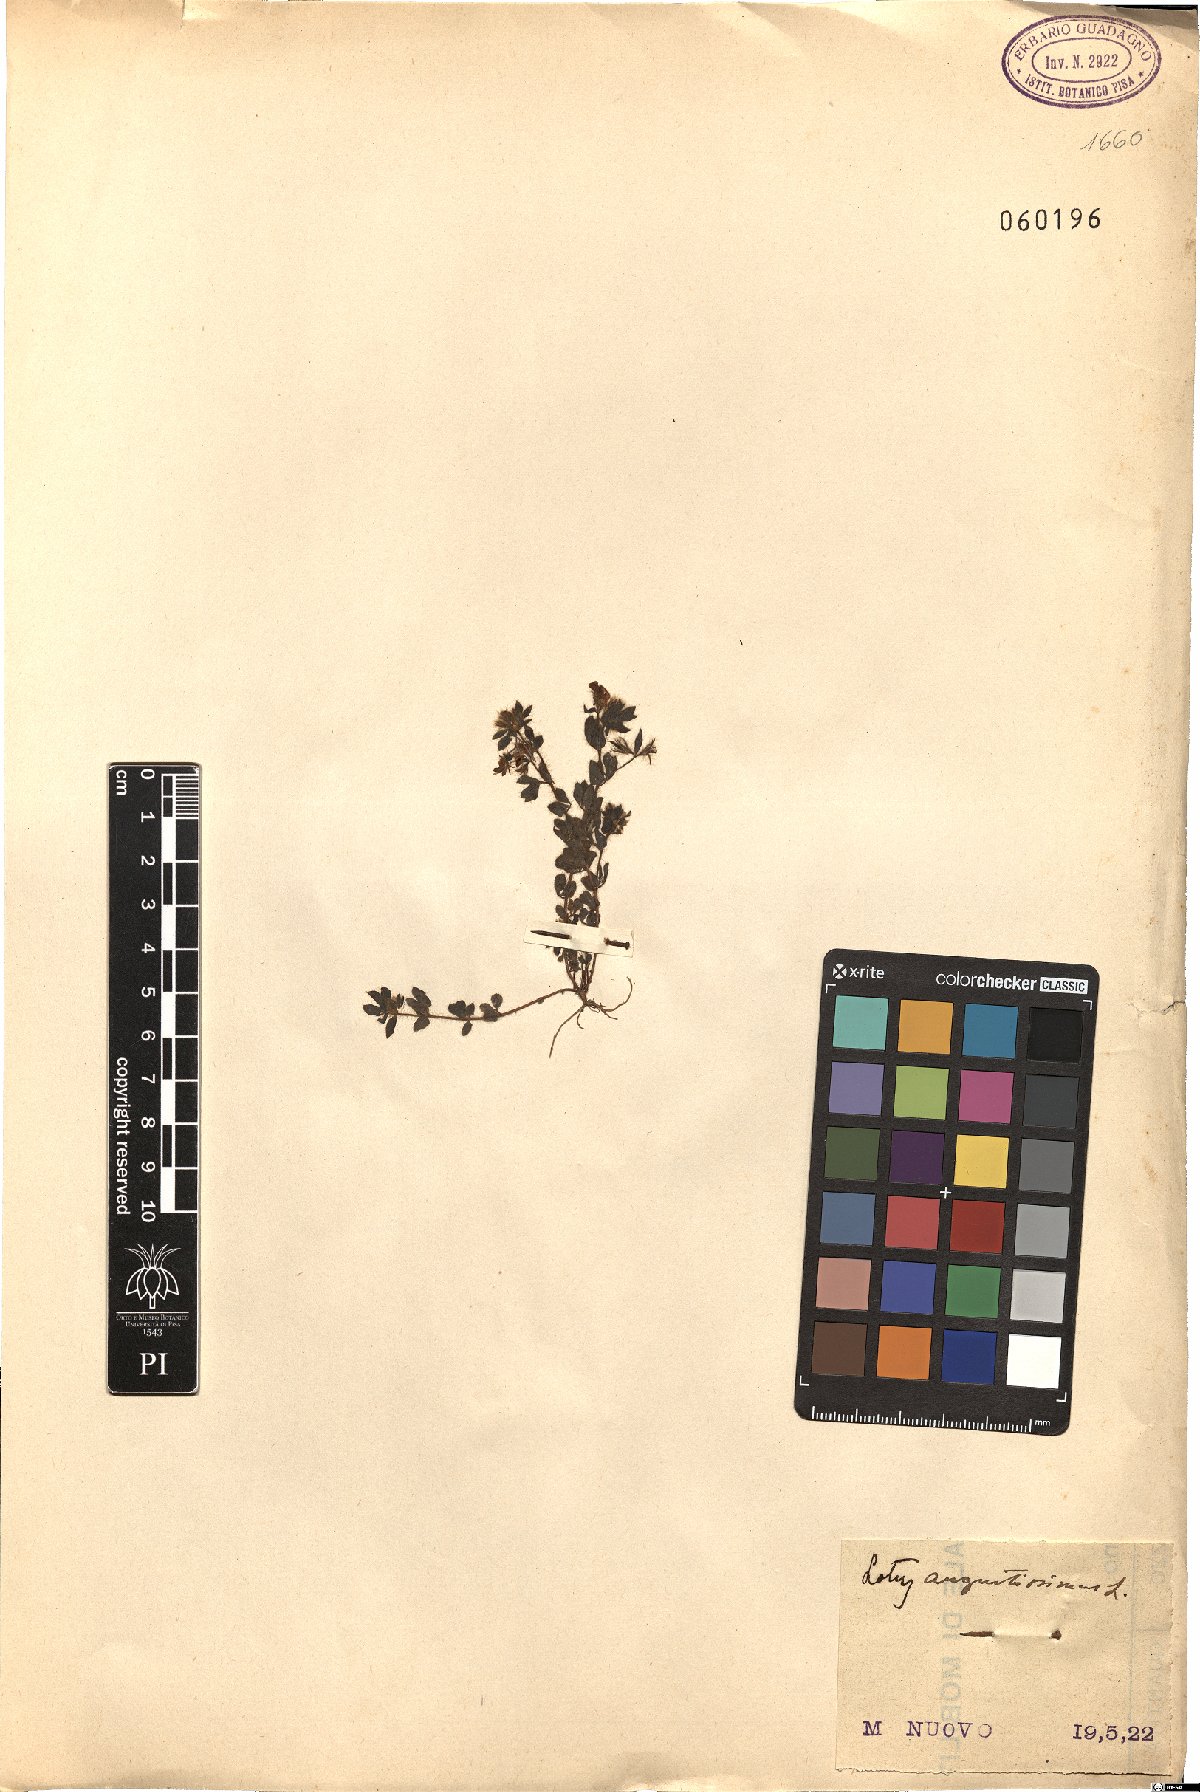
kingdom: Plantae
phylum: Tracheophyta
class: Magnoliopsida
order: Fabales
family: Fabaceae
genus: Lotus
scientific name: Lotus angustissimus
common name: Slender bird's-foot trefoil
